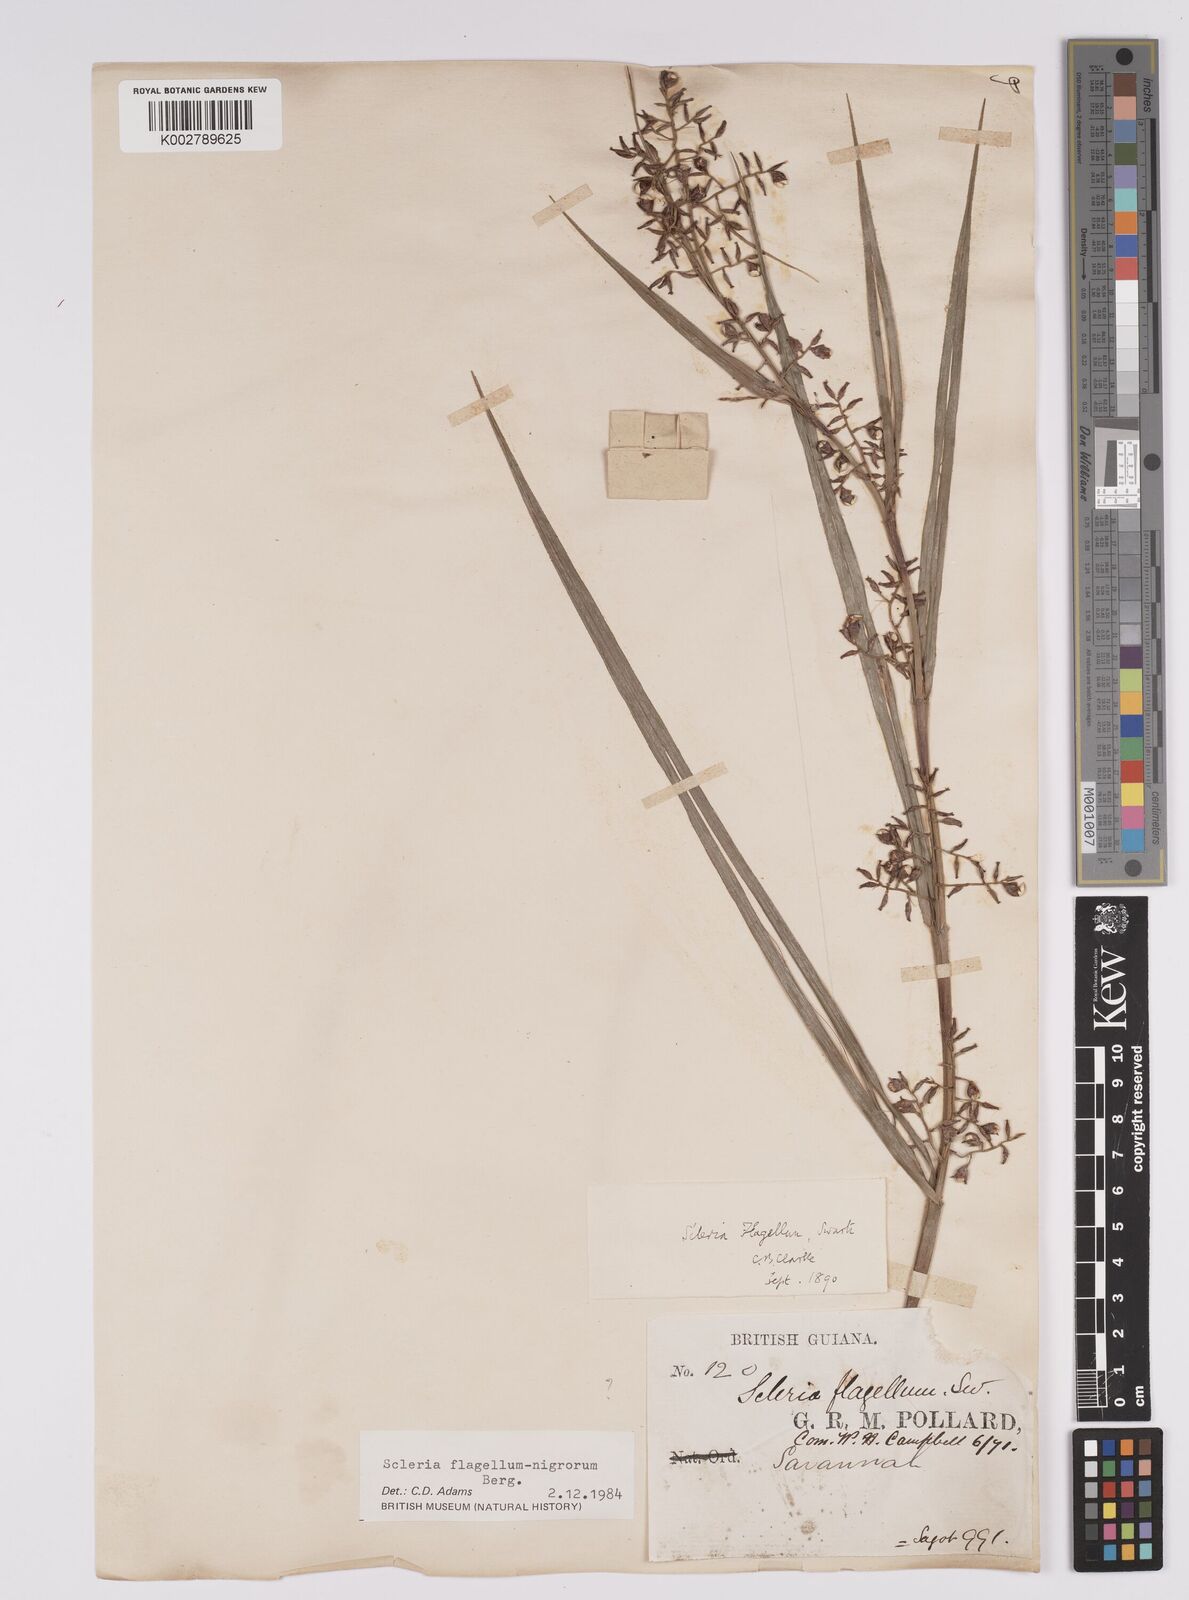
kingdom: Plantae
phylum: Tracheophyta
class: Liliopsida
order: Poales
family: Cyperaceae
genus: Scleria
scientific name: Scleria flagellum-nigrorum
